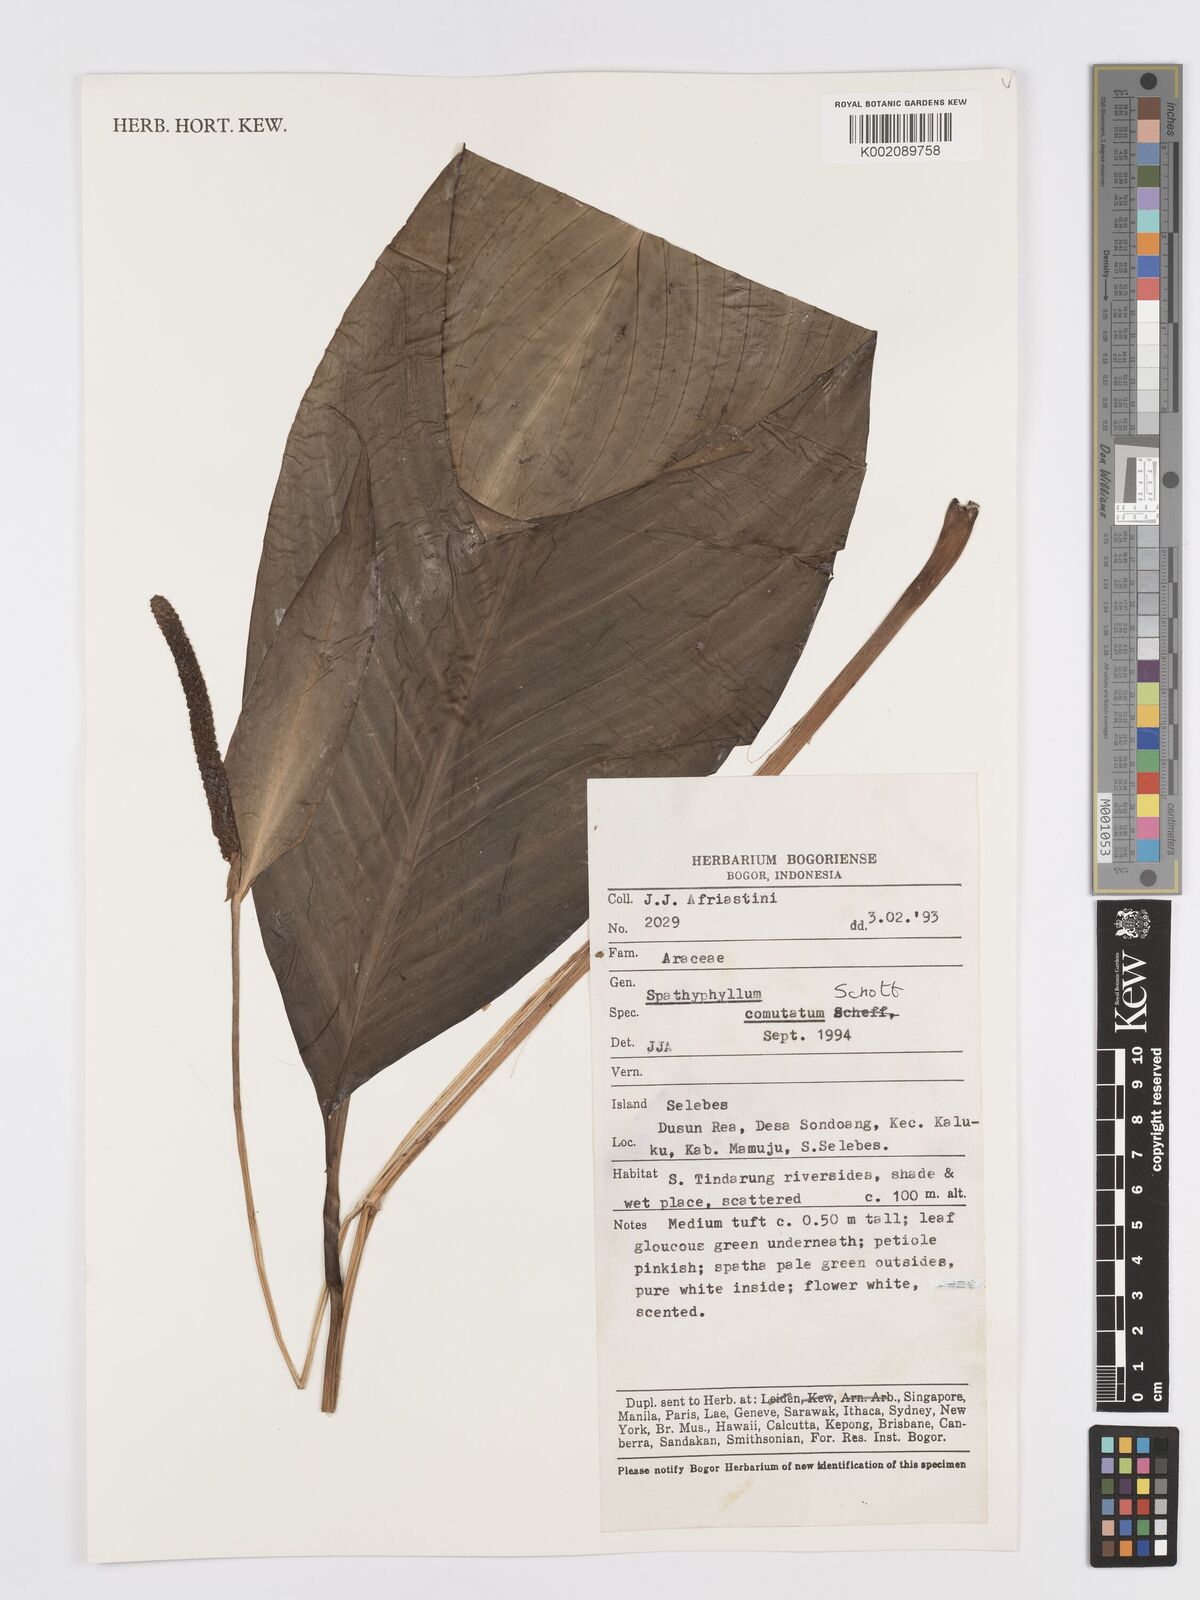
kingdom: Plantae
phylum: Tracheophyta
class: Liliopsida
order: Alismatales
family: Araceae
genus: Spathiphyllum
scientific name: Spathiphyllum commutatum
